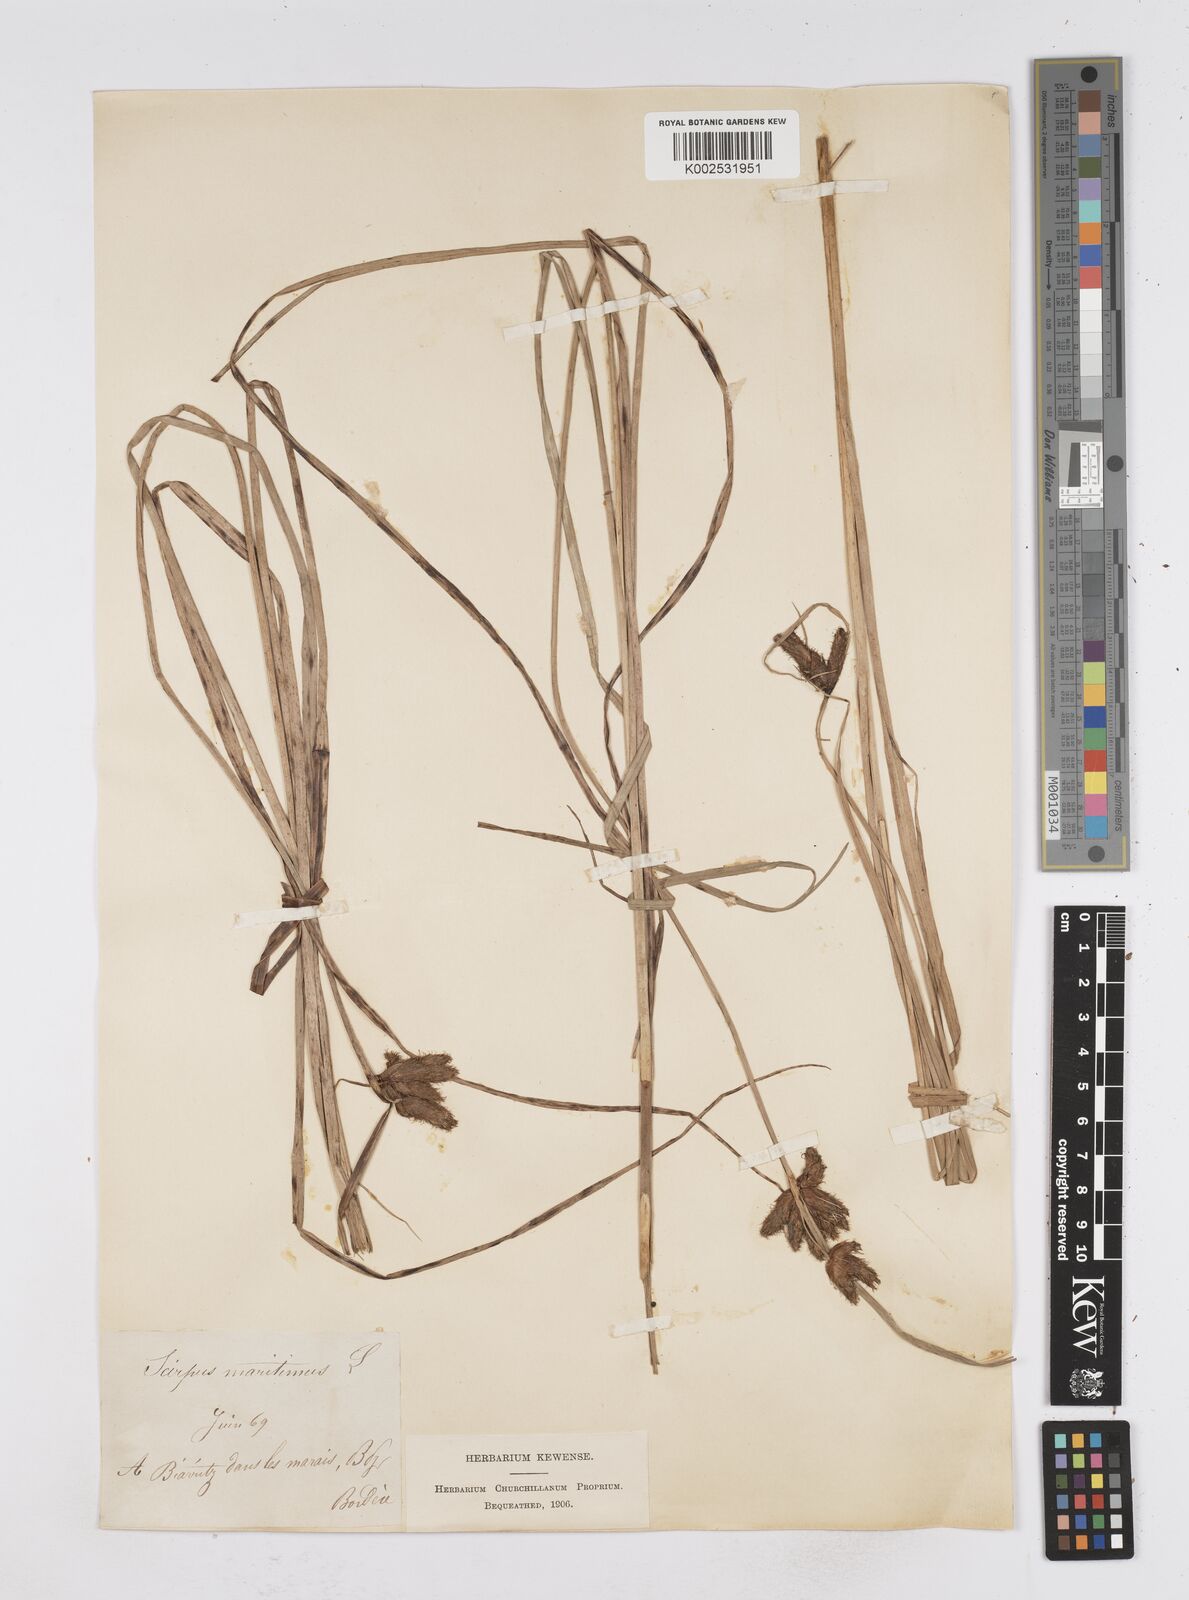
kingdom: Plantae
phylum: Tracheophyta
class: Liliopsida
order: Poales
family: Cyperaceae
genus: Bolboschoenus
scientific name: Bolboschoenus maritimus
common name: Sea club-rush
